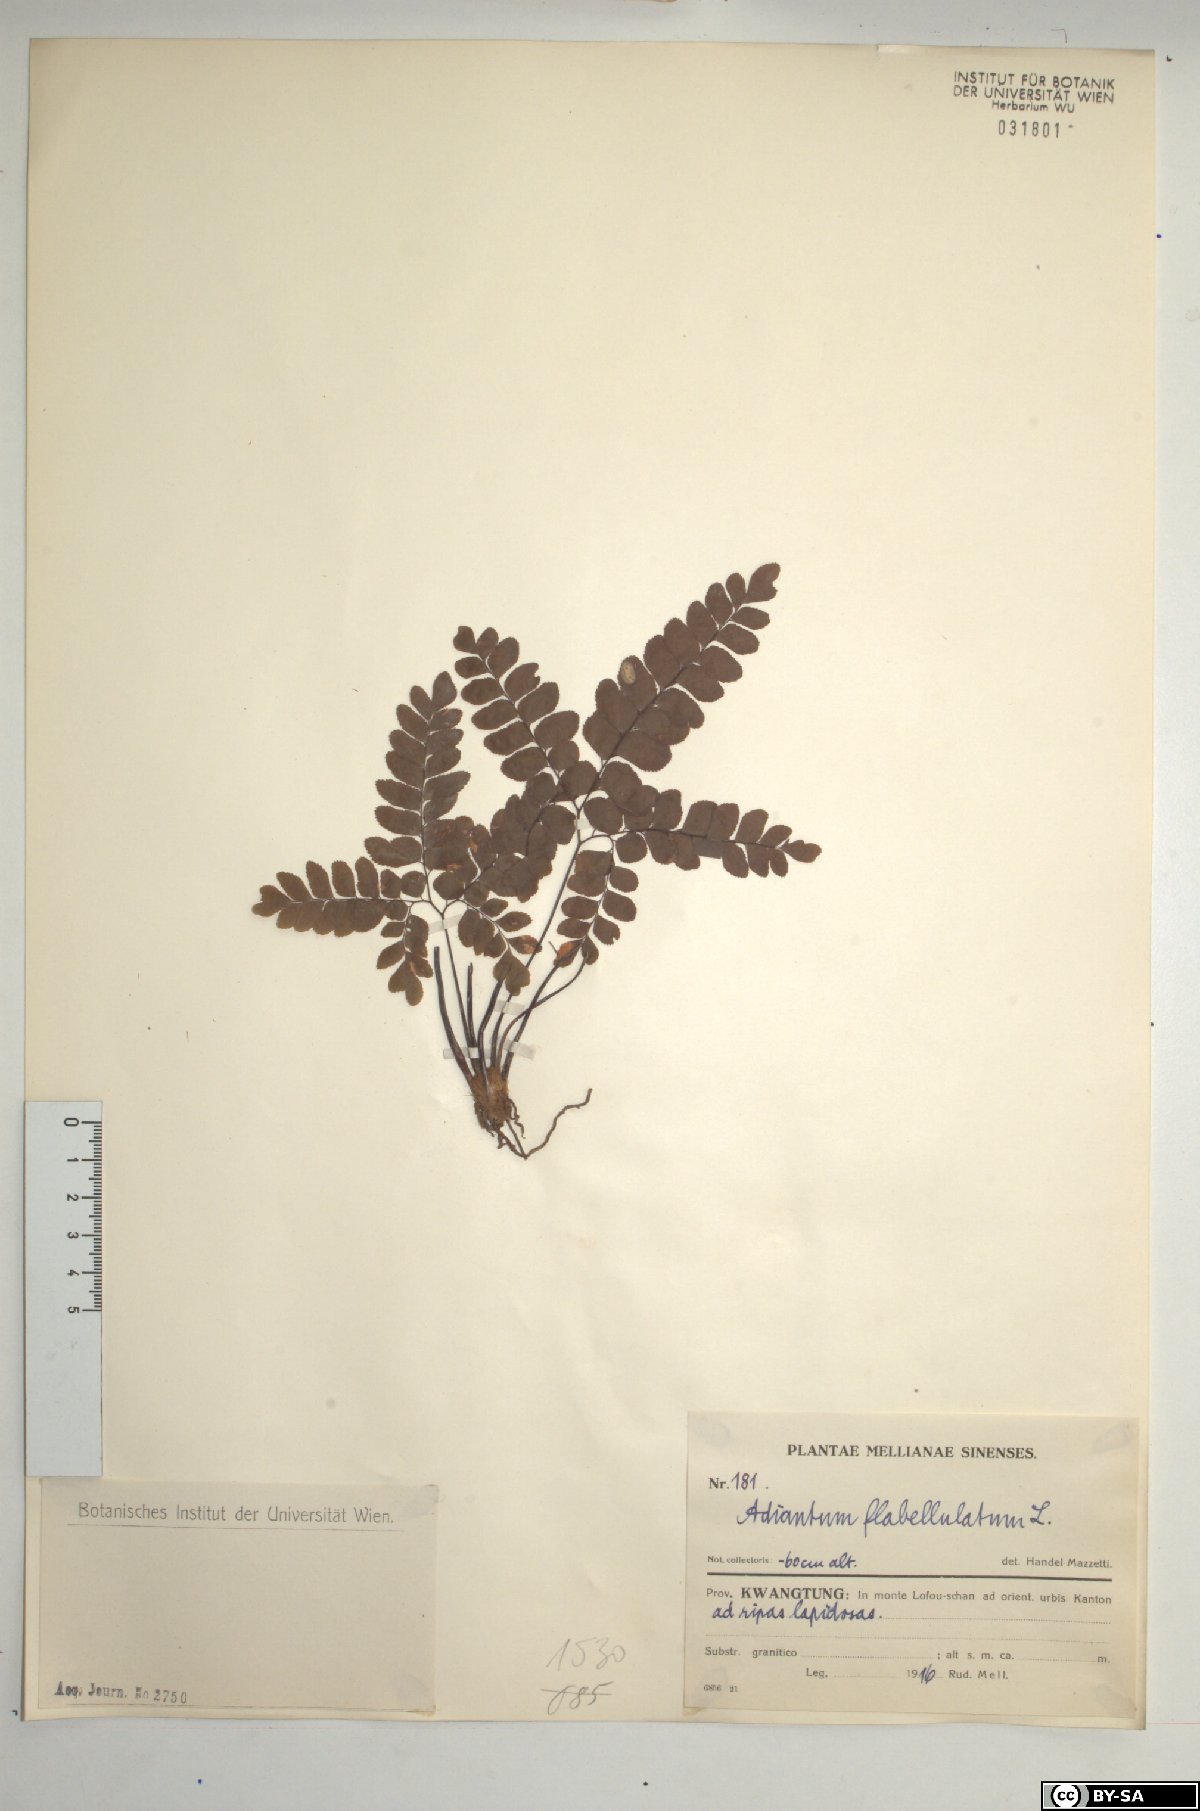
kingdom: Plantae
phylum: Tracheophyta
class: Polypodiopsida
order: Polypodiales
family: Pteridaceae
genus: Adiantum
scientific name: Adiantum flabellulatum
